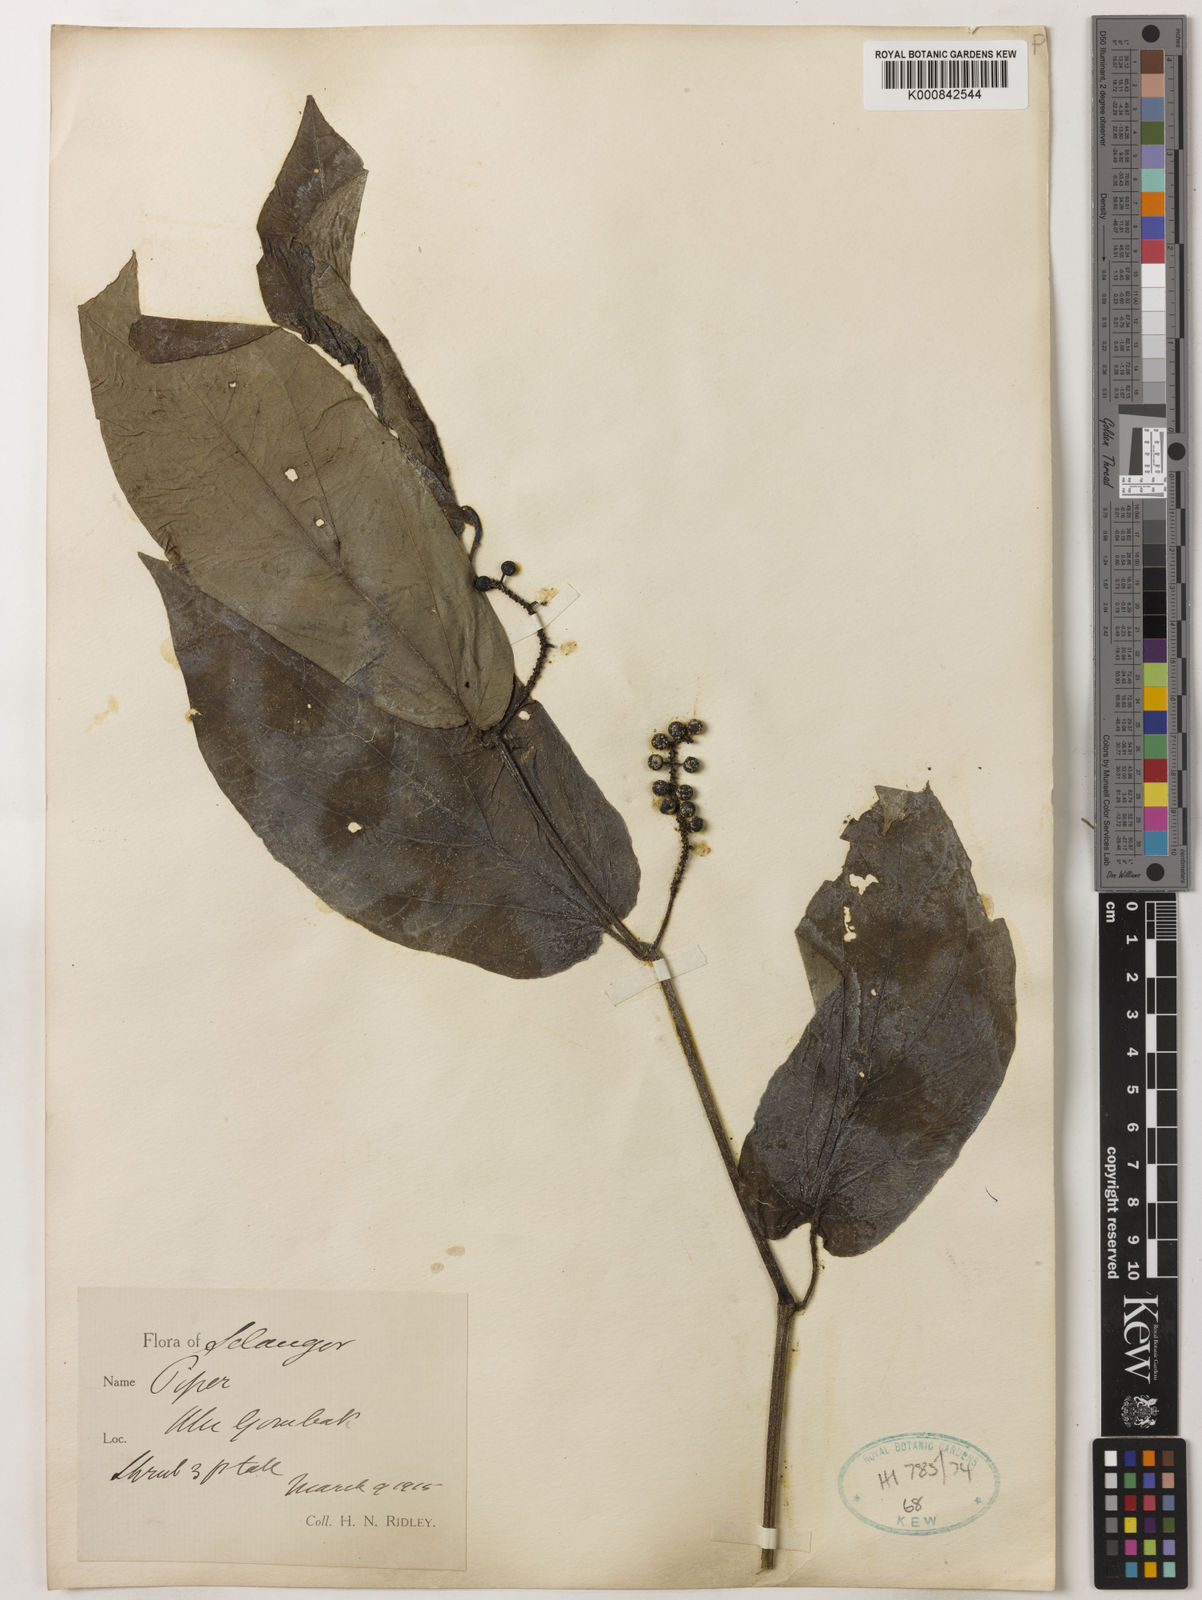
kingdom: Plantae
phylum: Tracheophyta
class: Magnoliopsida
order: Piperales
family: Piperaceae
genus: Piper
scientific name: Piper
